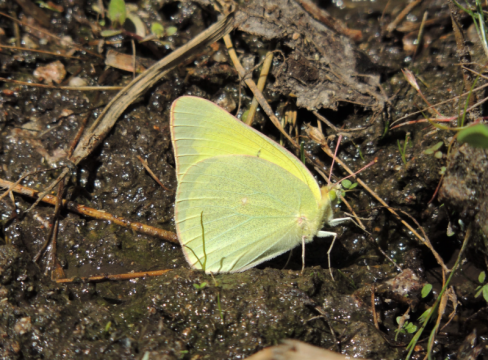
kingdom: Animalia
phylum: Arthropoda
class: Insecta
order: Lepidoptera
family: Pieridae
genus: Colias
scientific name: Colias alexandra
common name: Queen Alexandra's Sulphur
